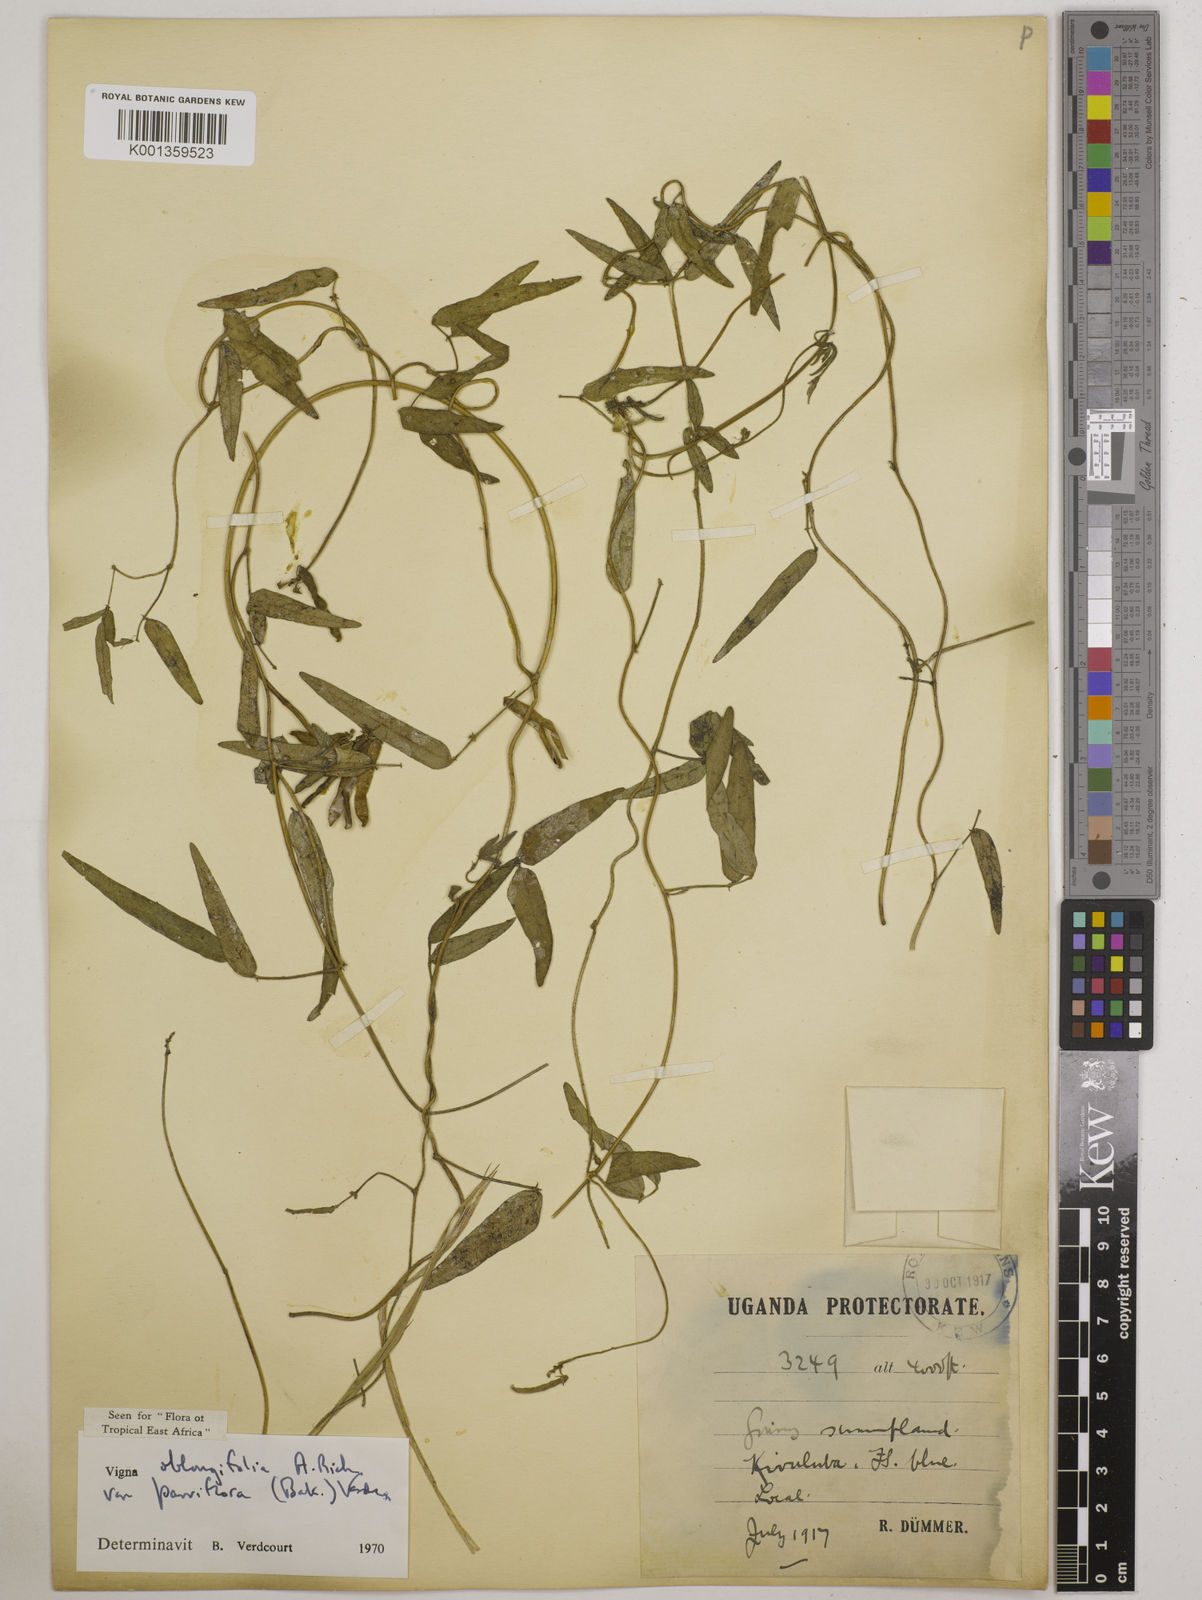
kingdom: Plantae
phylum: Tracheophyta
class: Magnoliopsida
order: Fabales
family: Fabaceae
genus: Vigna
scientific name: Vigna
